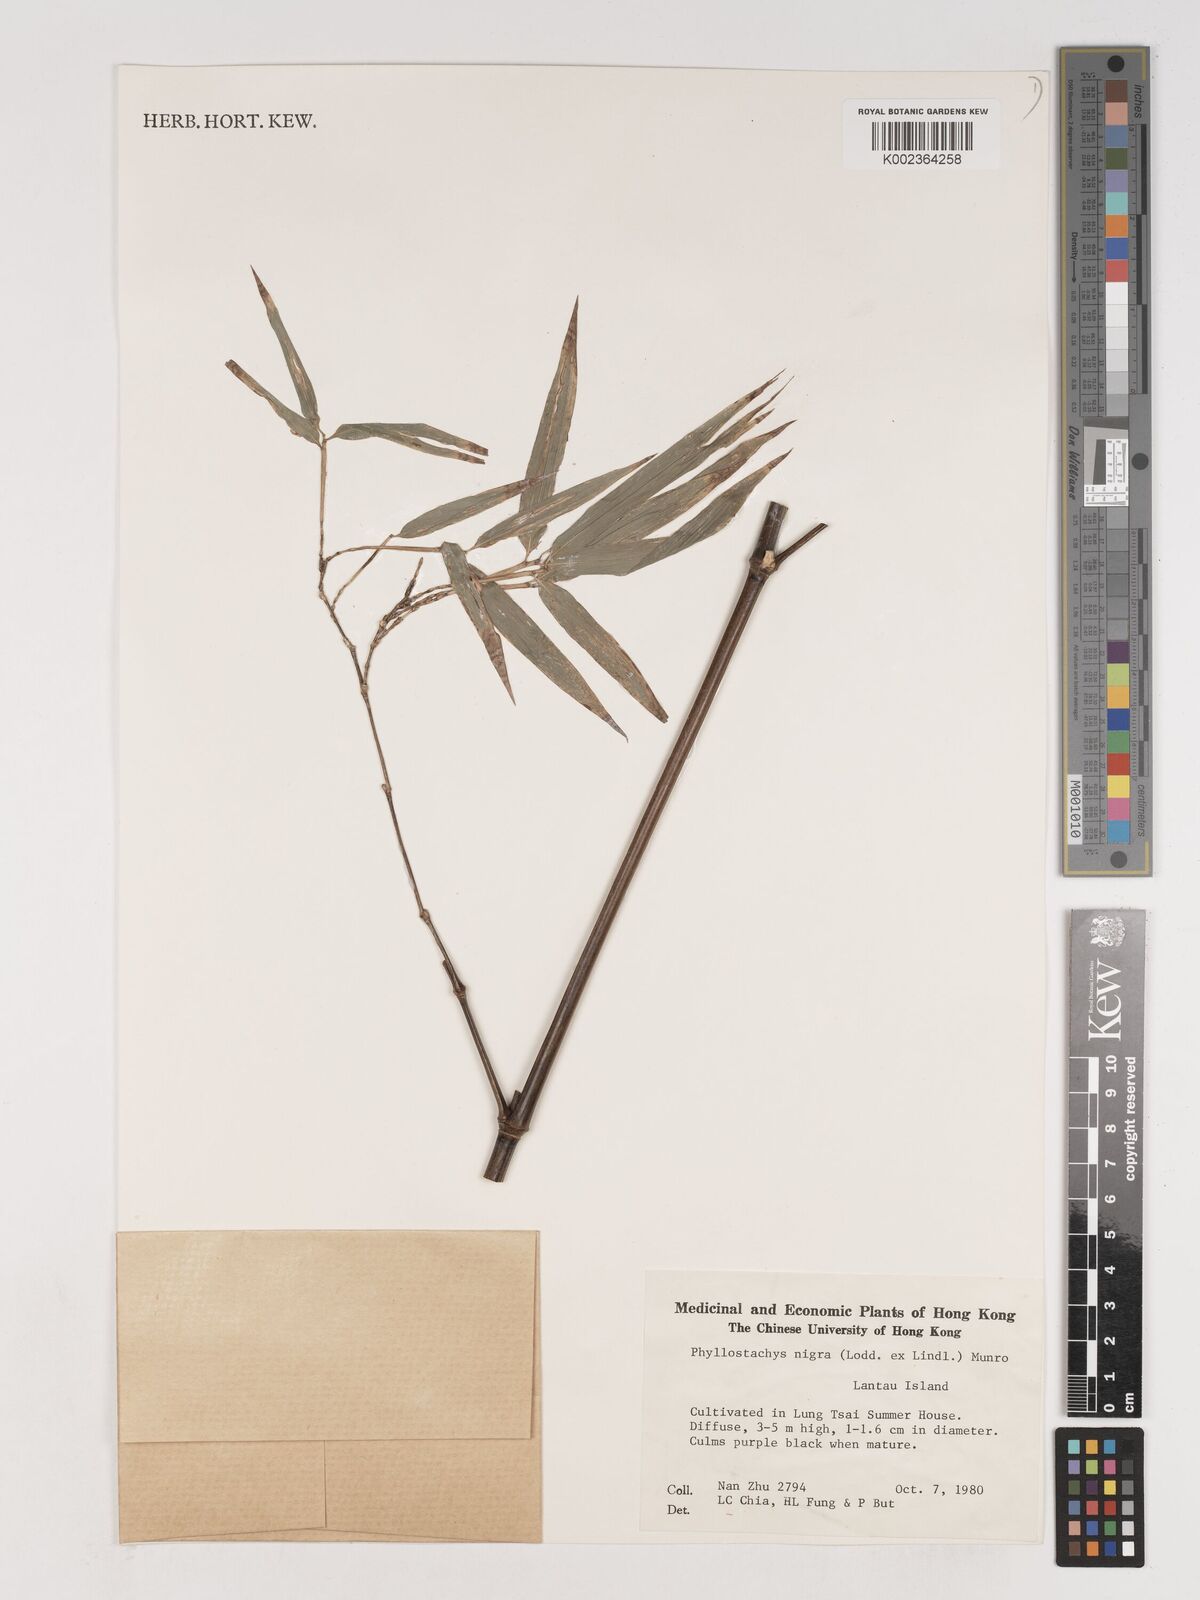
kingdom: Plantae
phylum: Tracheophyta
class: Liliopsida
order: Poales
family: Poaceae
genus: Phyllostachys
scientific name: Phyllostachys nigra
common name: Black bamboo
